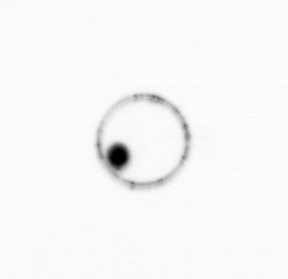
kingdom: Chromista
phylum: Myzozoa
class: Dinophyceae
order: Noctilucales
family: Noctilucaceae
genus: Noctiluca
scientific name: Noctiluca scintillans
